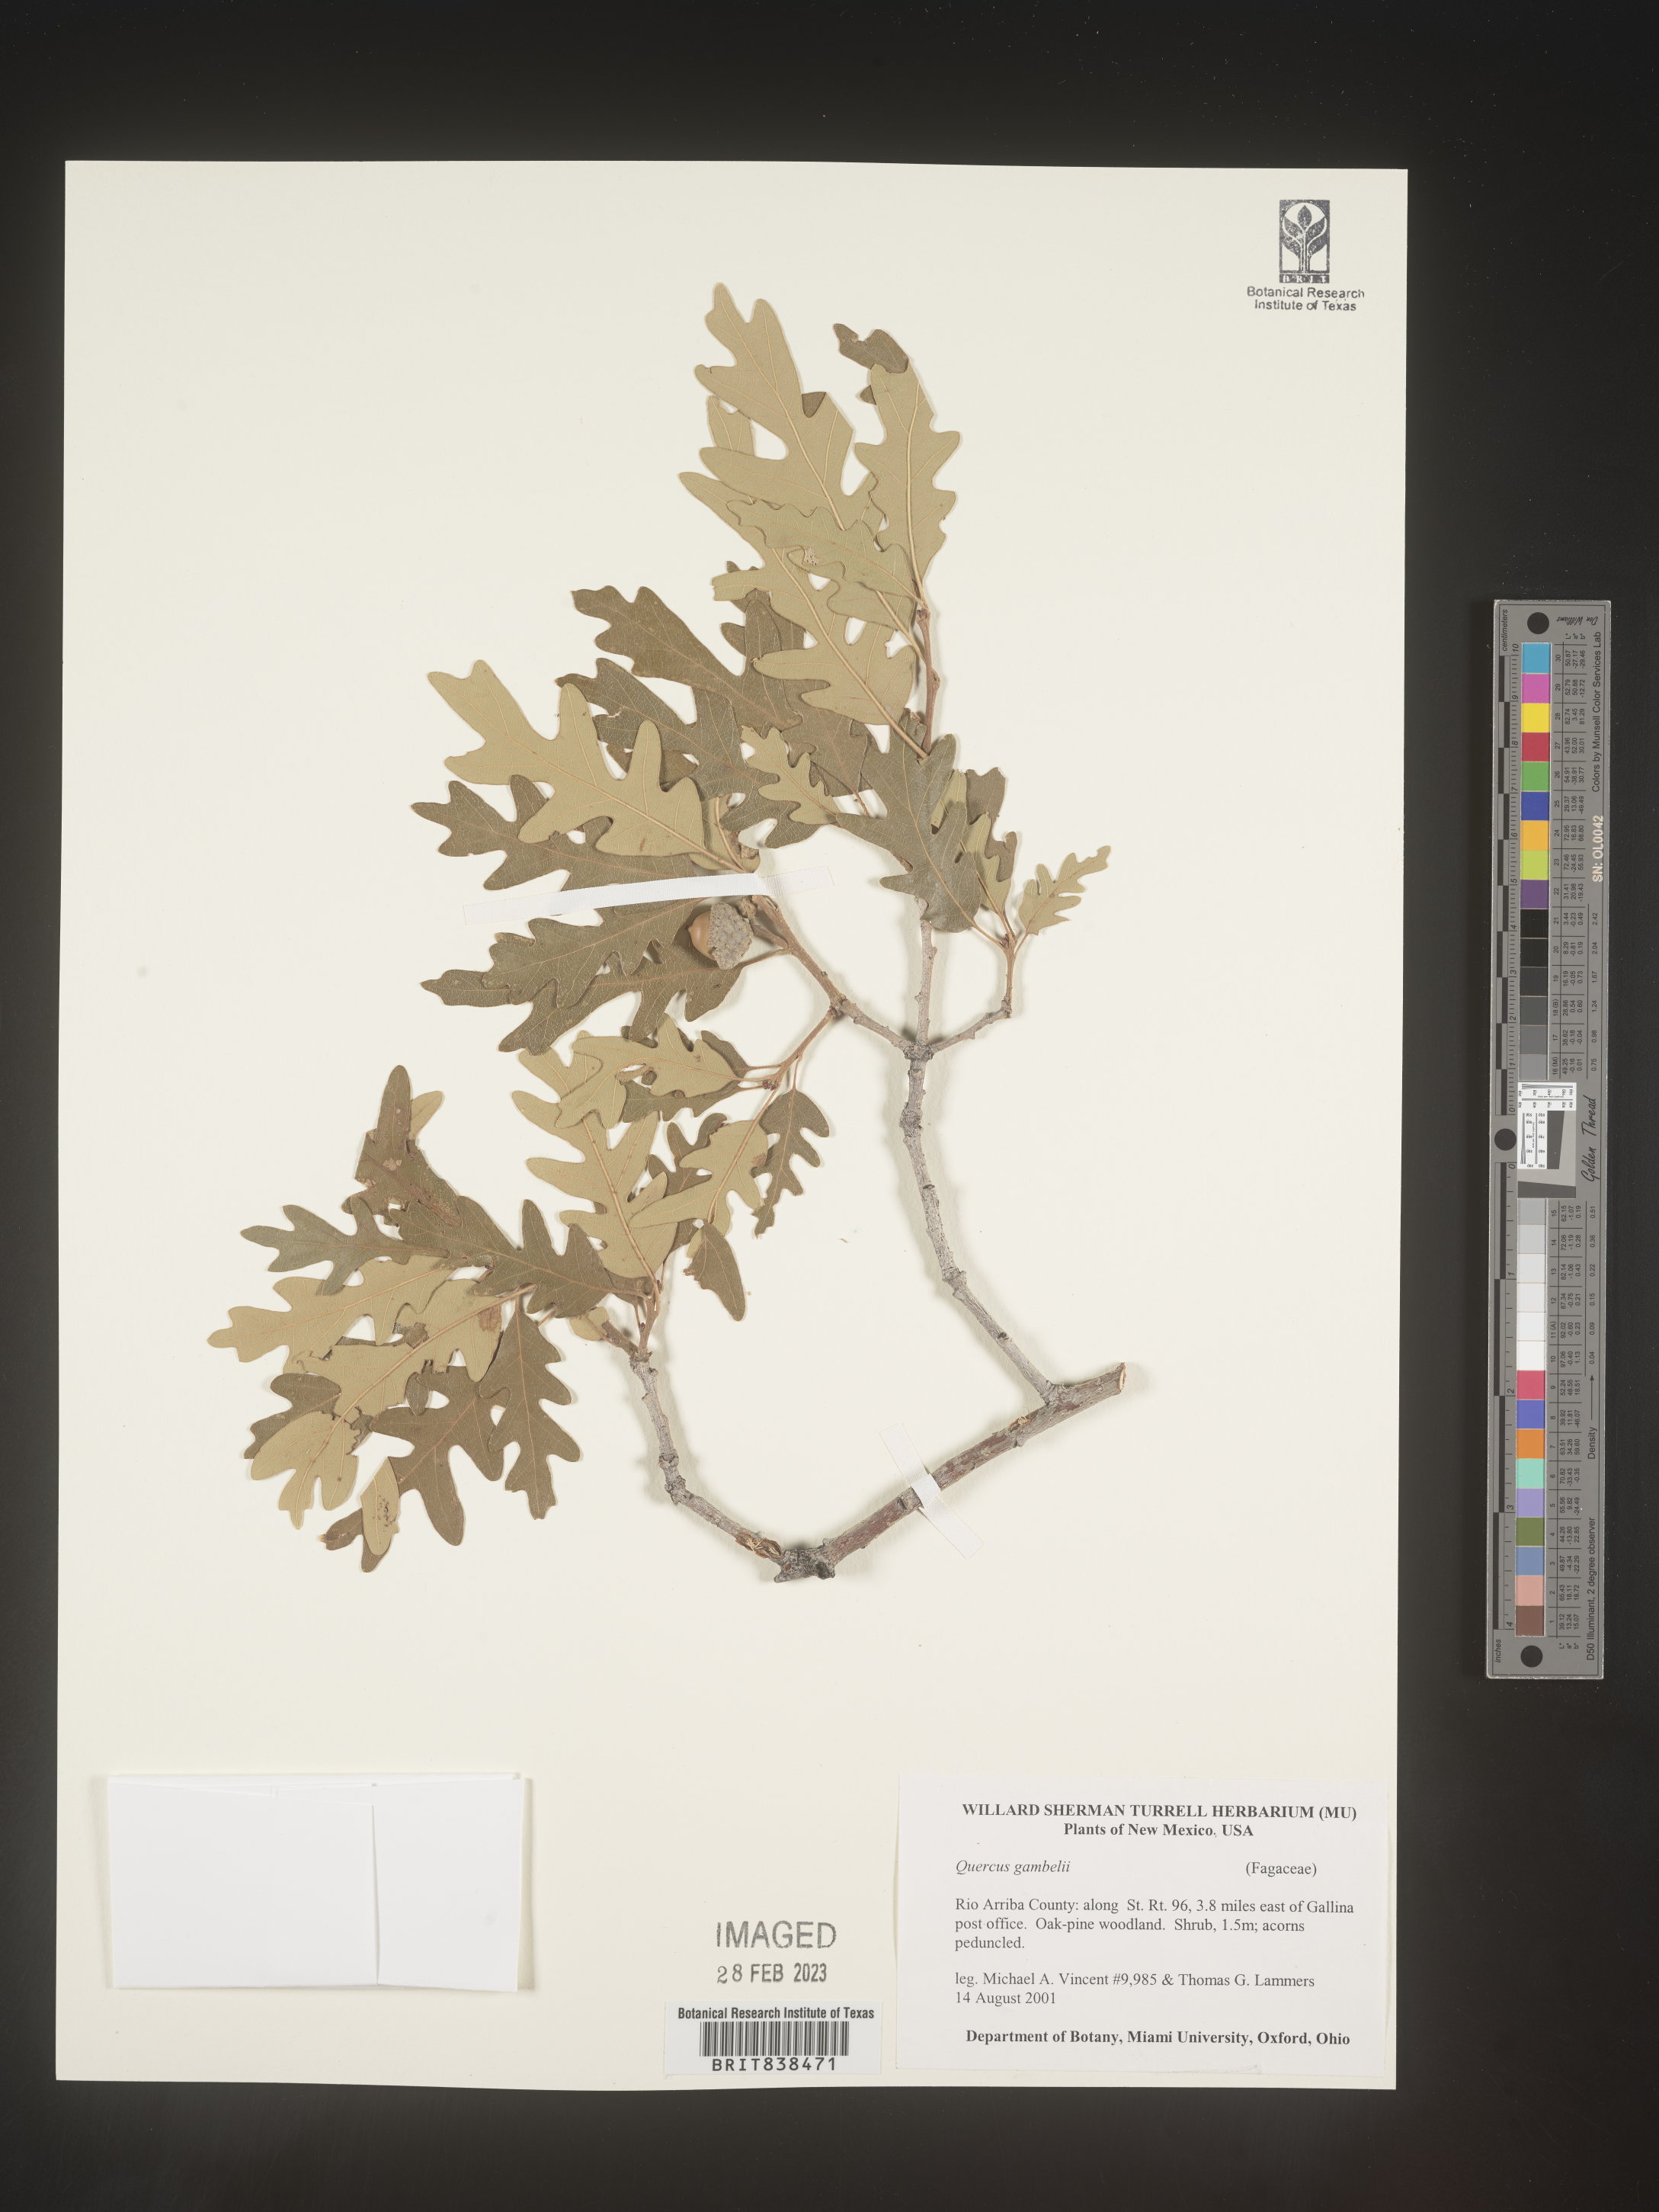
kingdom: Plantae
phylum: Tracheophyta
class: Magnoliopsida
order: Fagales
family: Fagaceae
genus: Quercus
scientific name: Quercus gambelii
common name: Gambel oak
